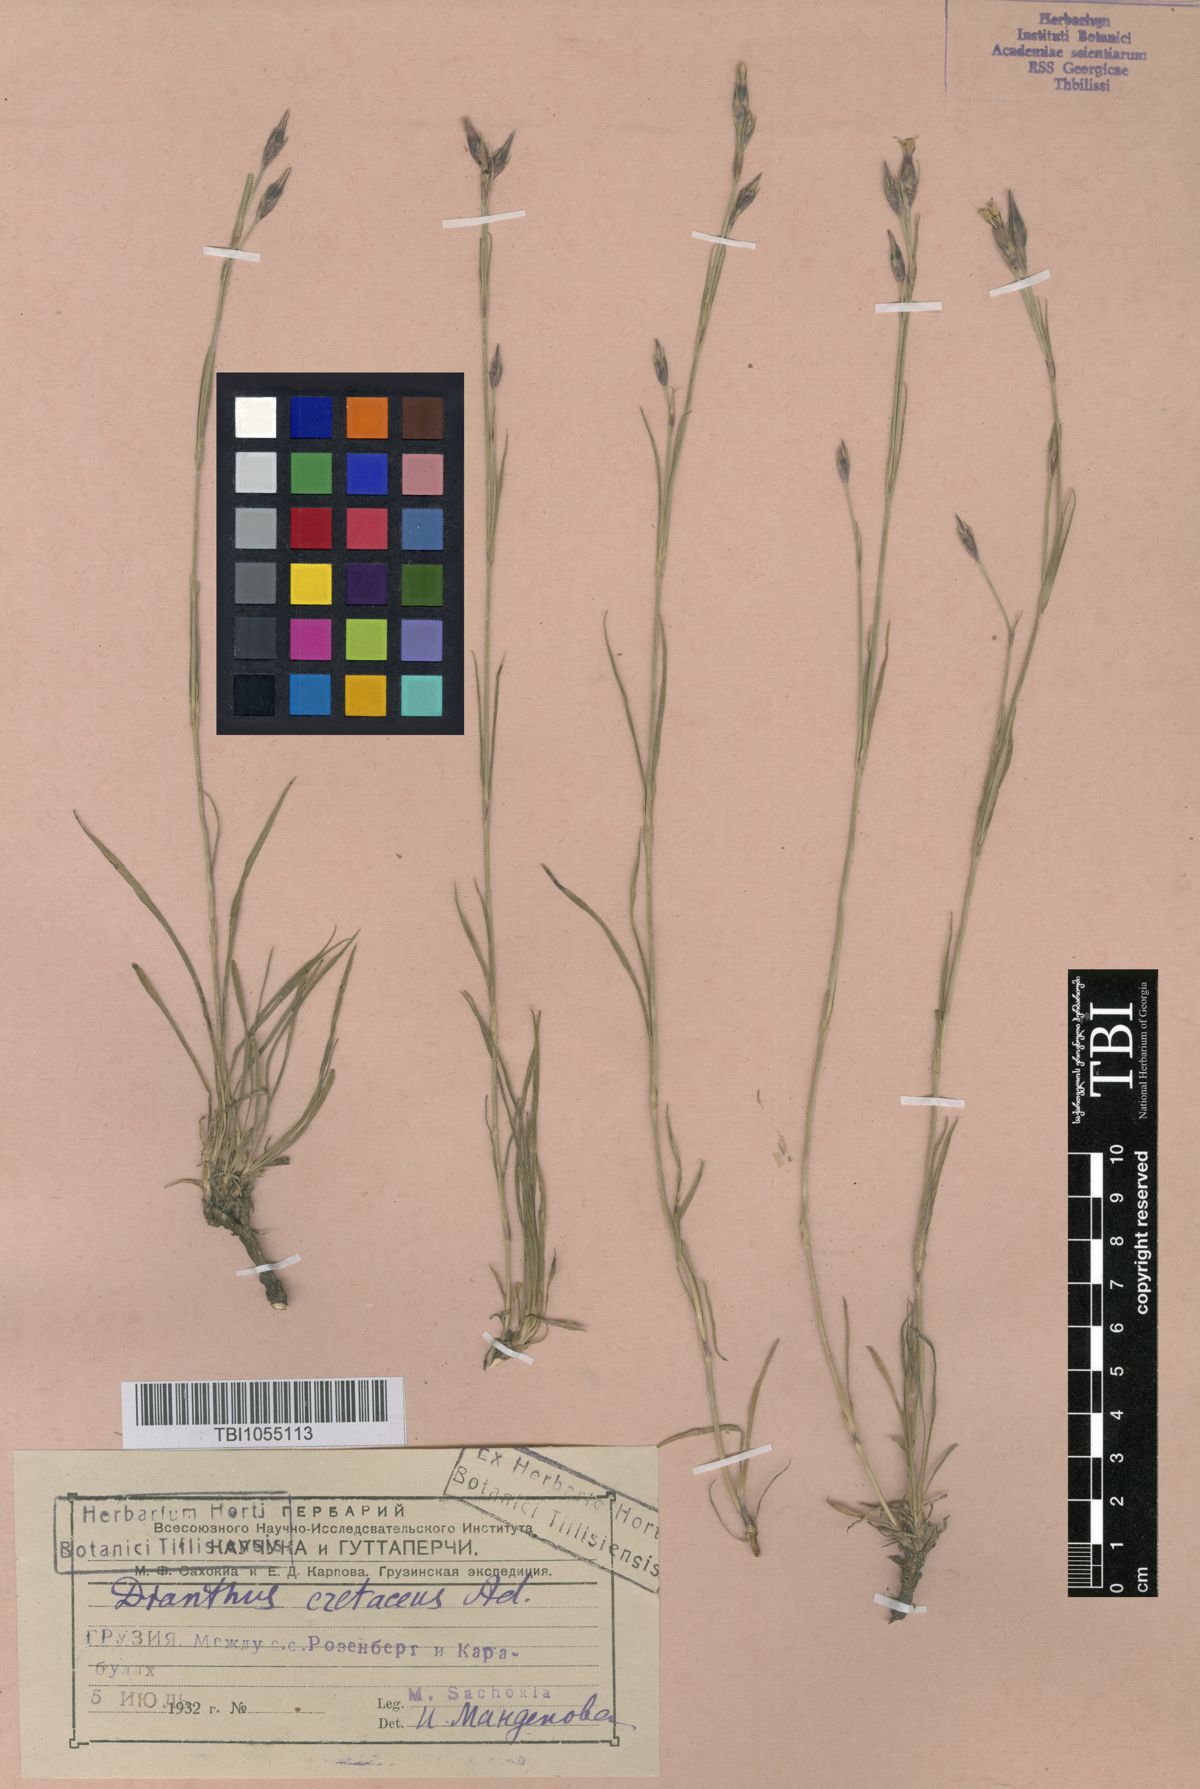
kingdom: Plantae
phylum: Tracheophyta
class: Magnoliopsida
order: Caryophyllales
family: Caryophyllaceae
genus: Dianthus
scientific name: Dianthus cretaceus
